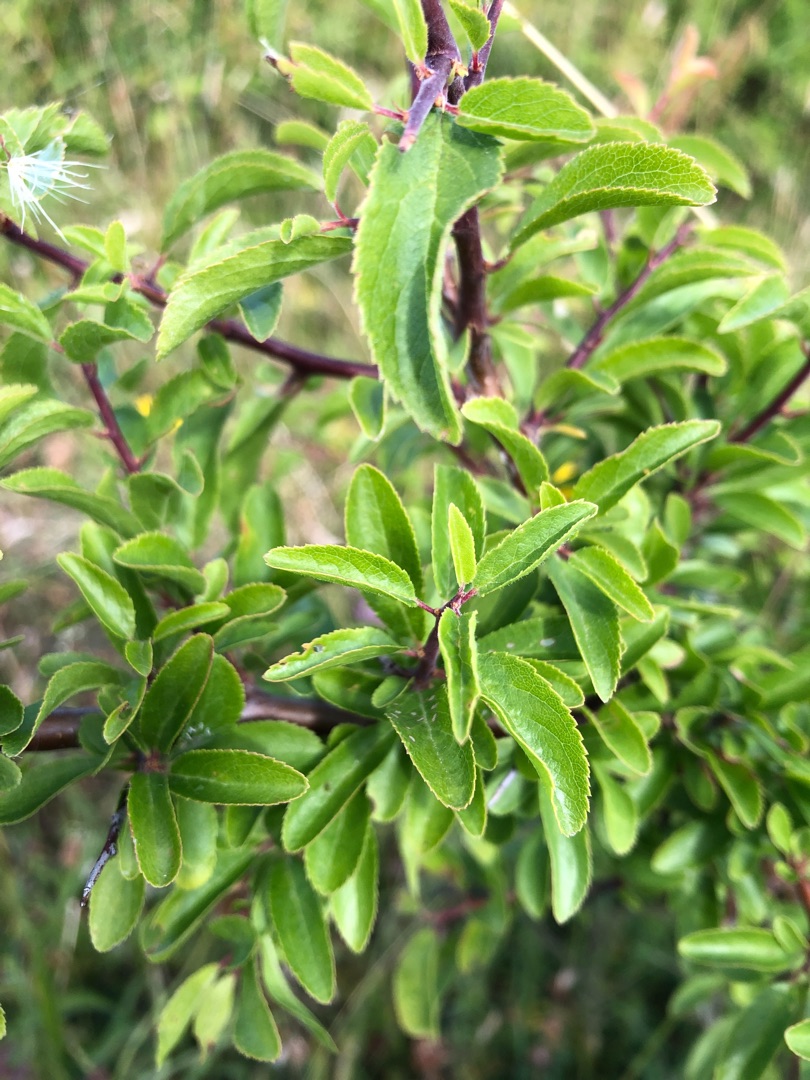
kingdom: Plantae
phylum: Tracheophyta
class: Magnoliopsida
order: Rosales
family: Rosaceae
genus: Prunus
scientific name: Prunus spinosa
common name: Slåen
